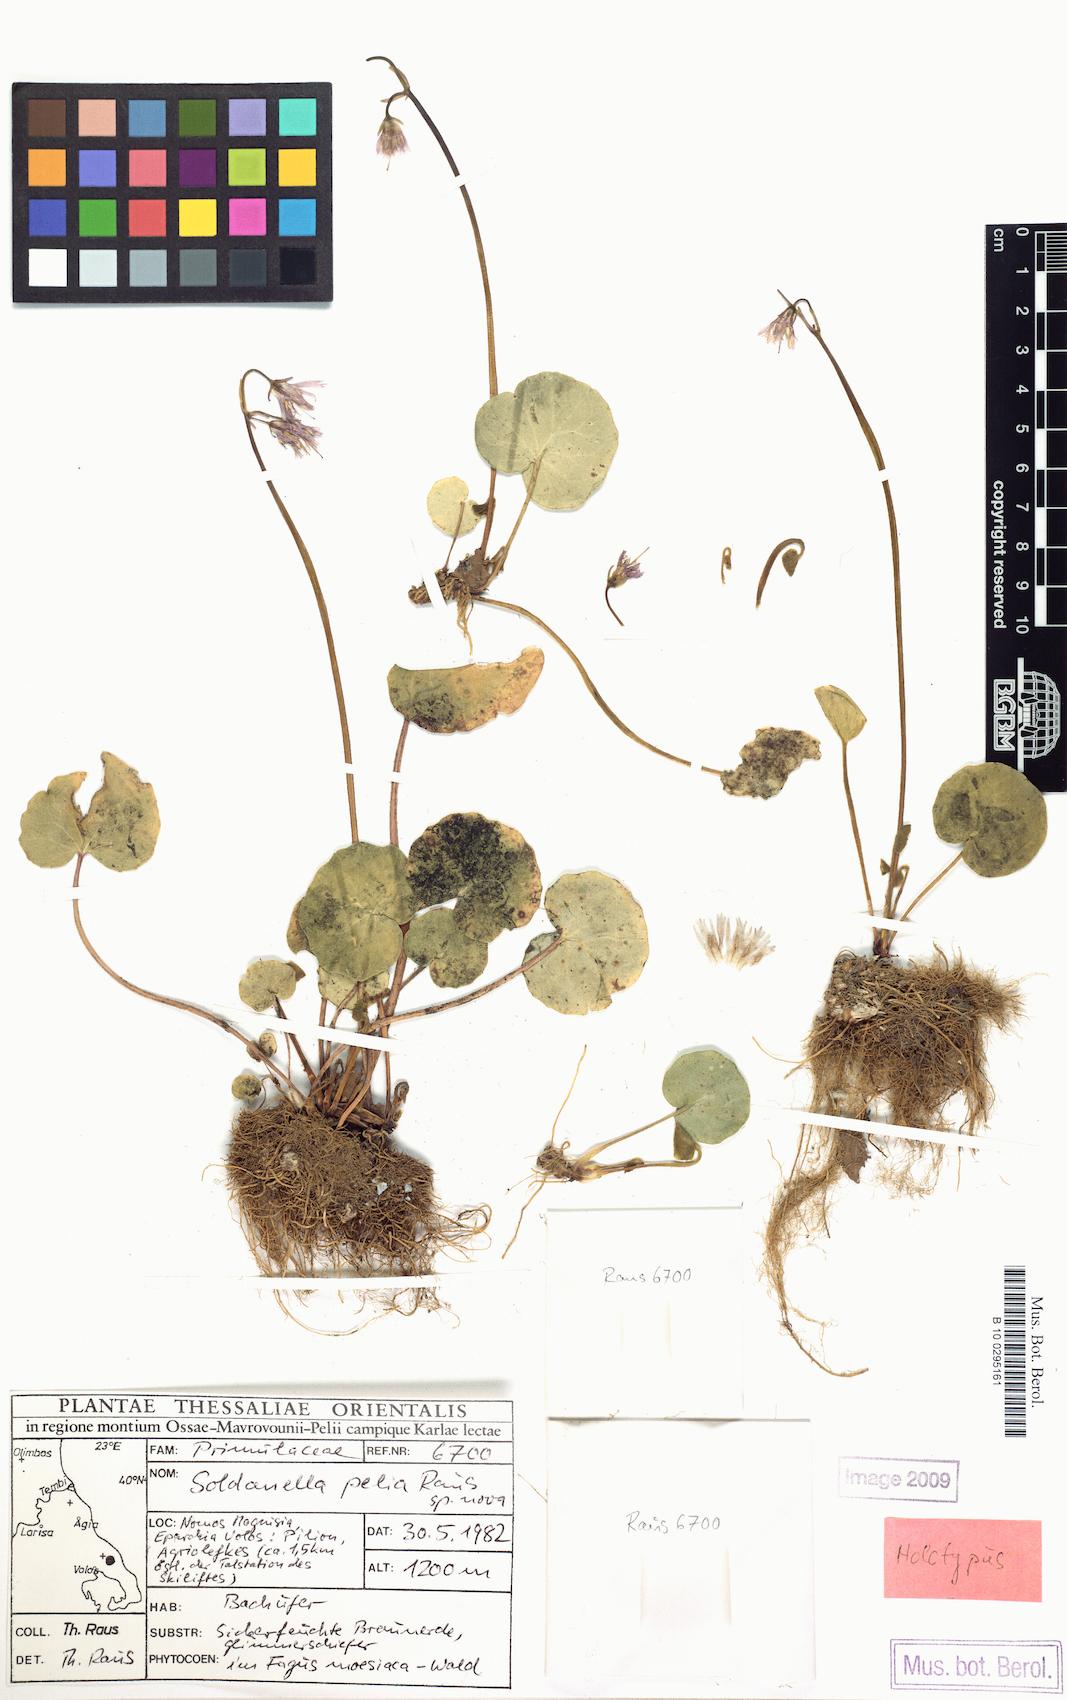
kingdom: Plantae
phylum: Tracheophyta
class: Magnoliopsida
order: Ericales
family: Primulaceae
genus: Soldanella
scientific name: Soldanella chrysosticta
